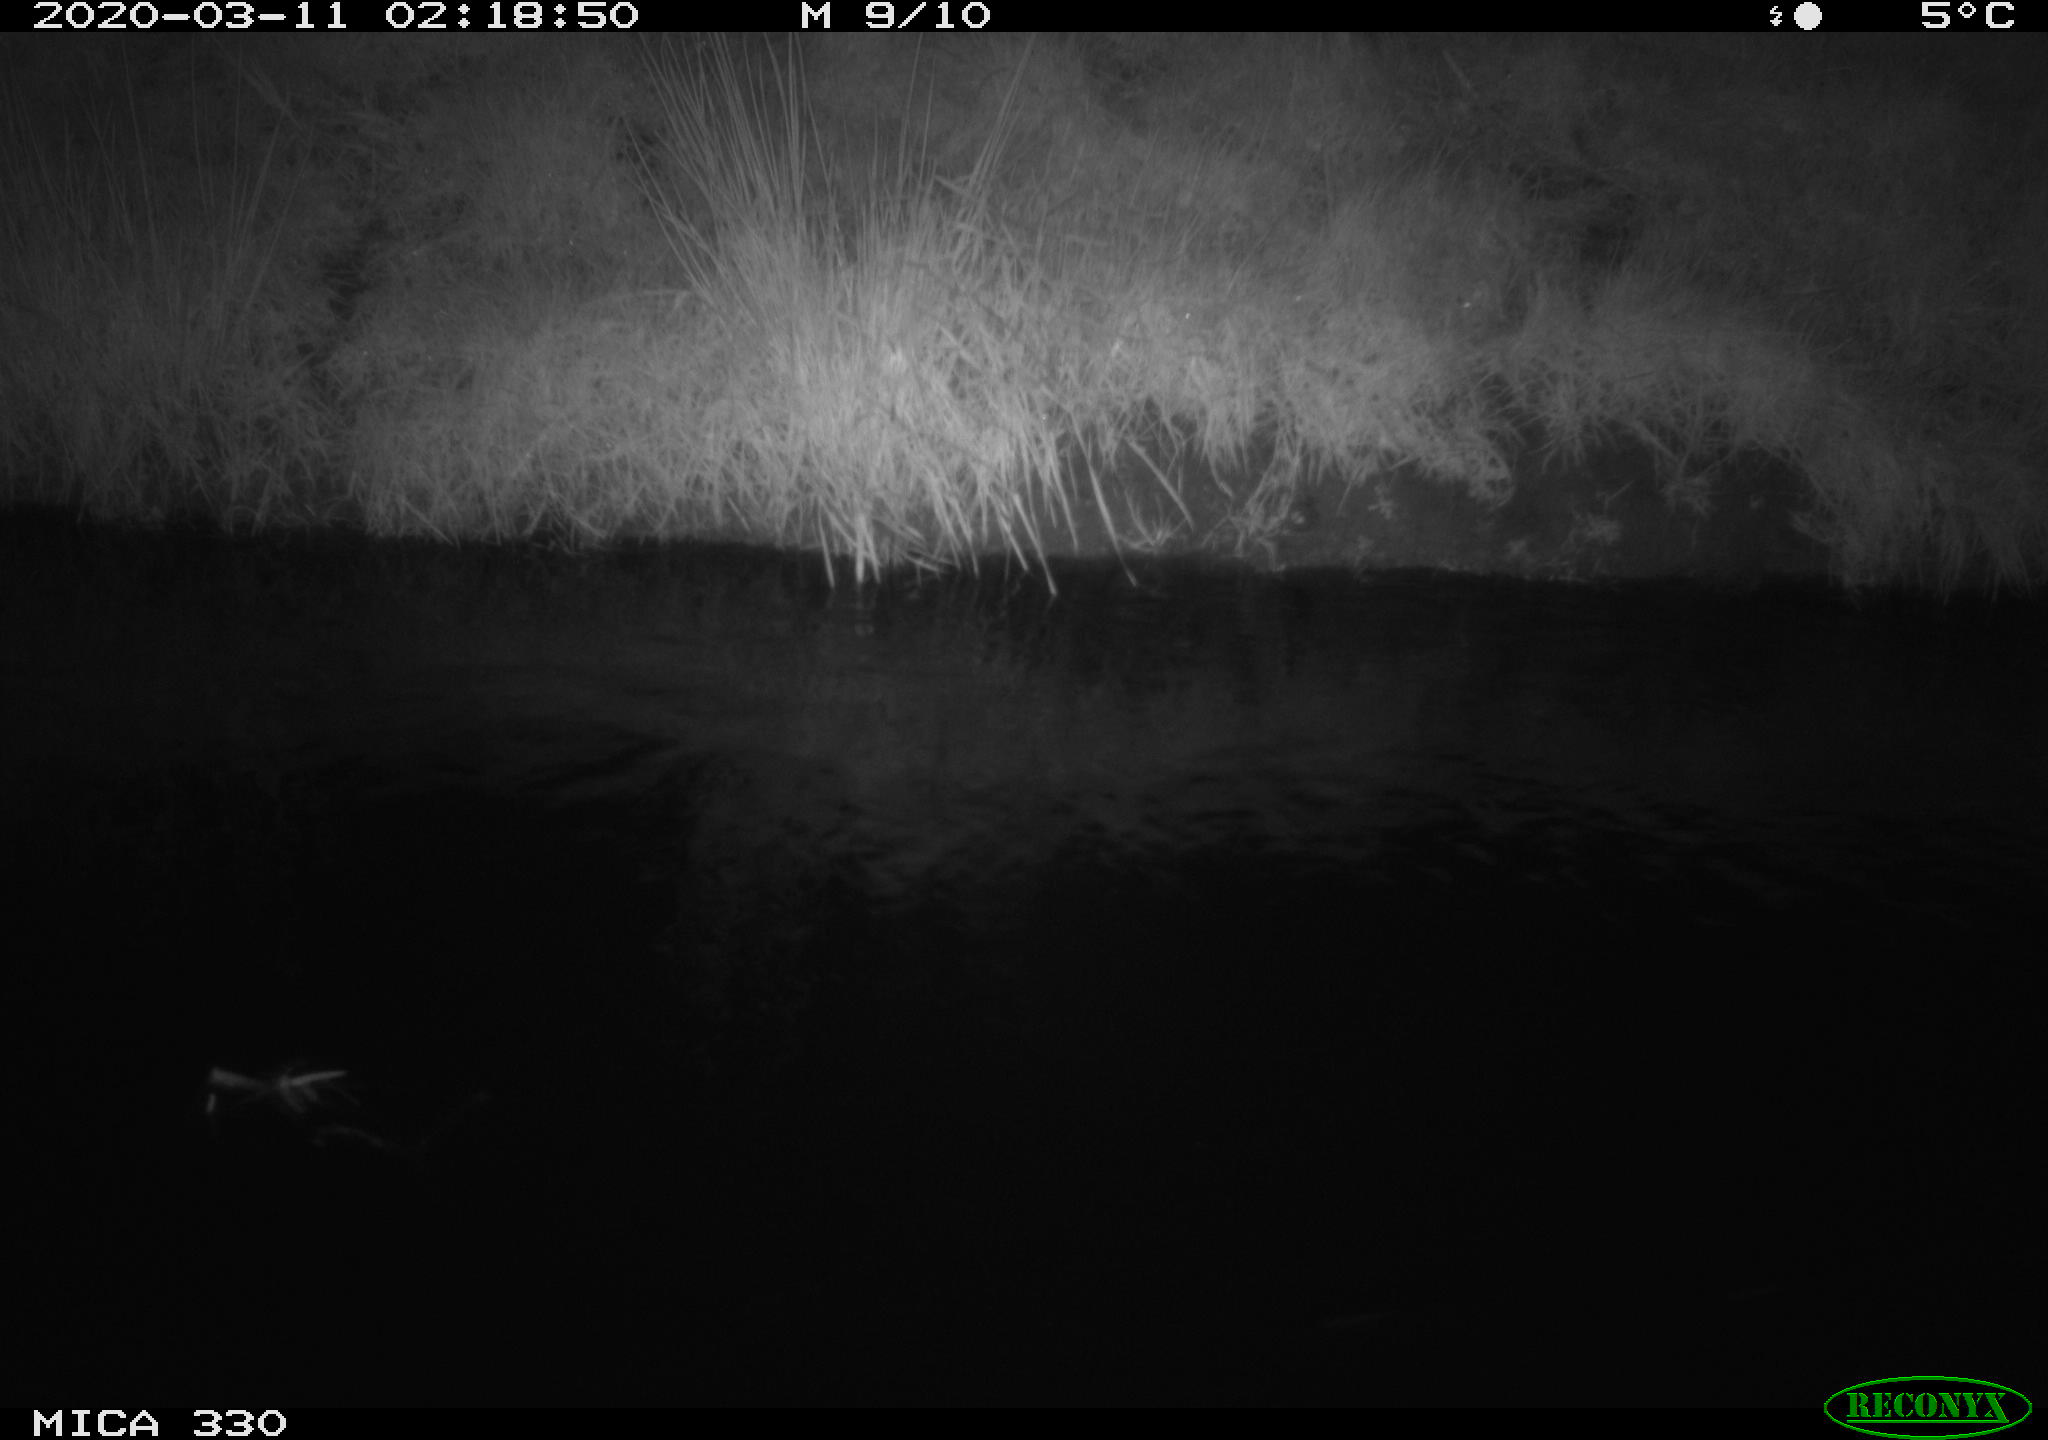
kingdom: Animalia
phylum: Chordata
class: Aves
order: Anseriformes
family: Anatidae
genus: Anas
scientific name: Anas platyrhynchos
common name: Mallard
